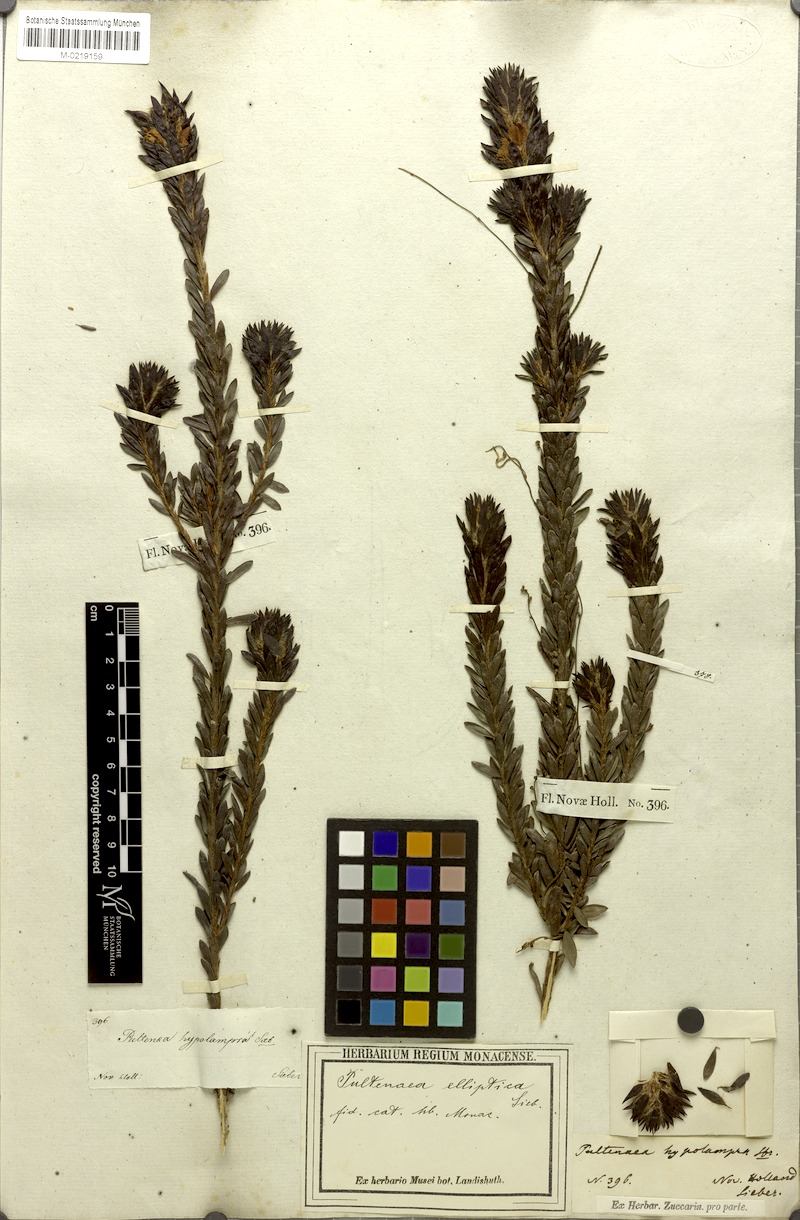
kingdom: Plantae
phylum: Tracheophyta
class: Magnoliopsida
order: Fabales
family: Fabaceae
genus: Pultenaea
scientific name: Pultenaea tuberculata
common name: Wreath bush-pea
